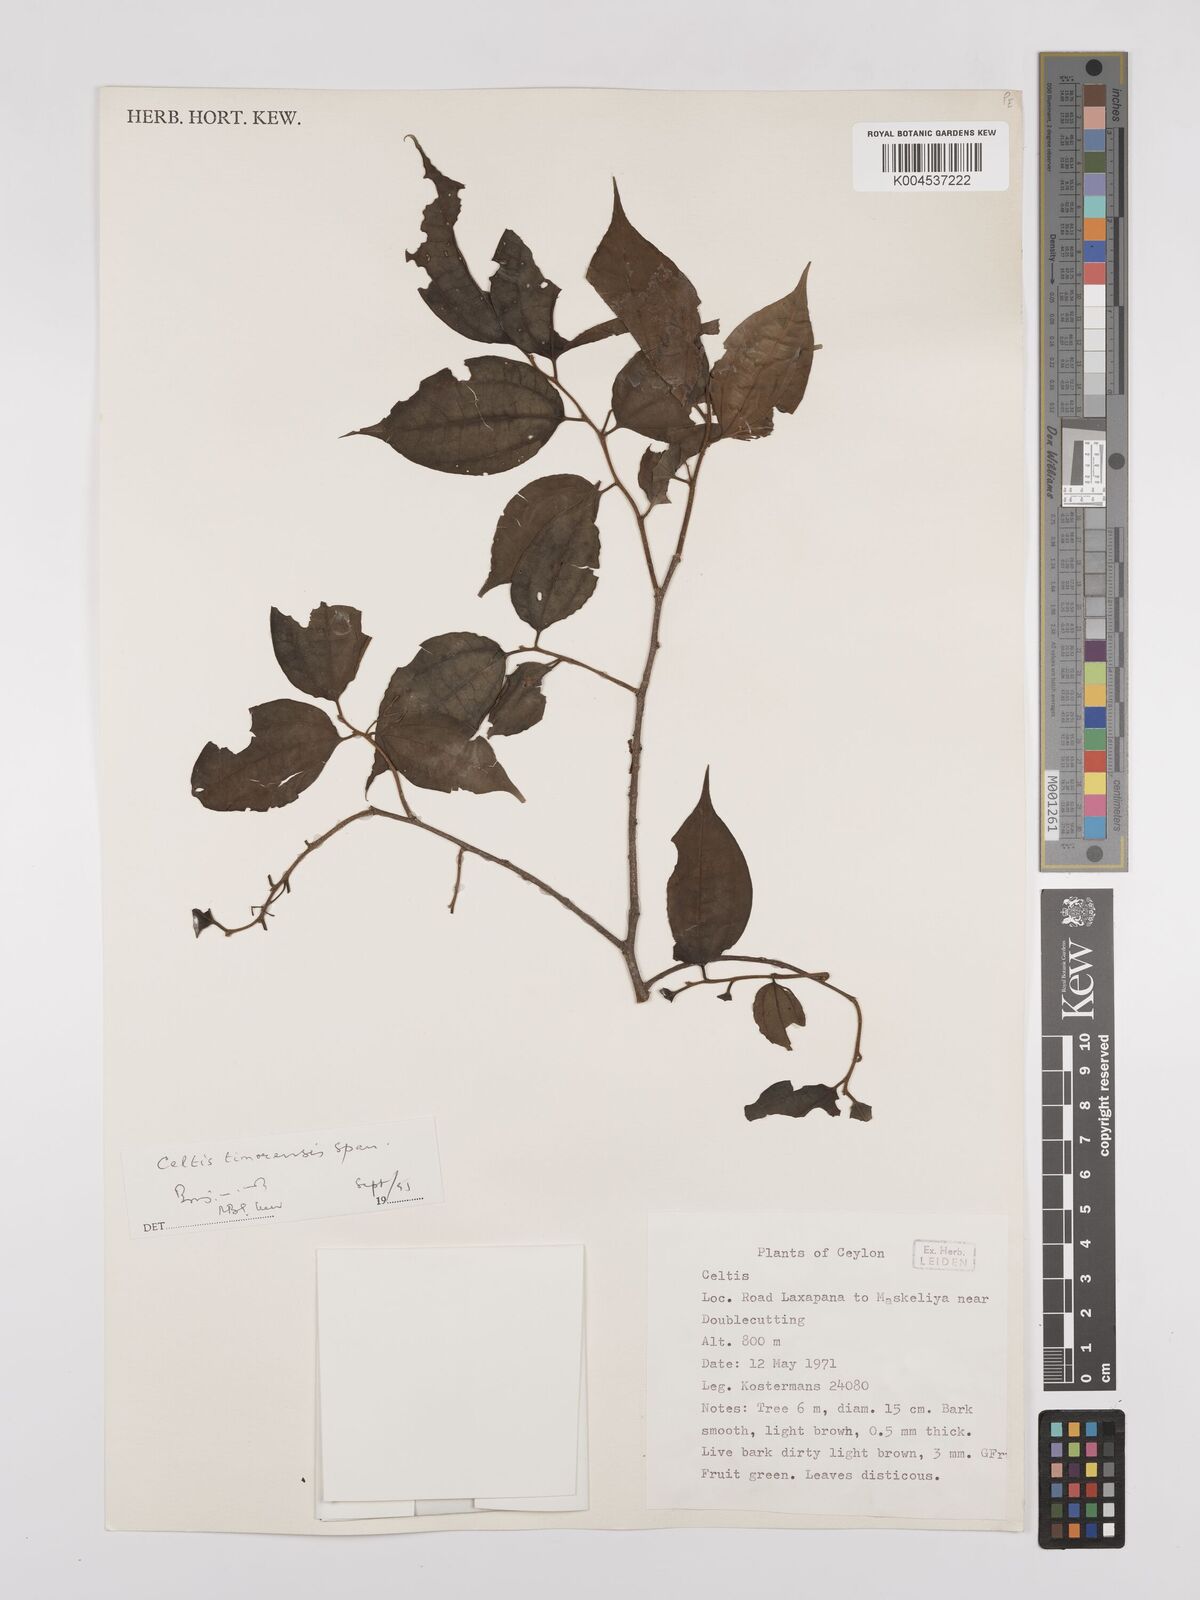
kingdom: Plantae
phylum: Tracheophyta
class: Magnoliopsida
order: Rosales
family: Cannabaceae
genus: Celtis
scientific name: Celtis timorensis
